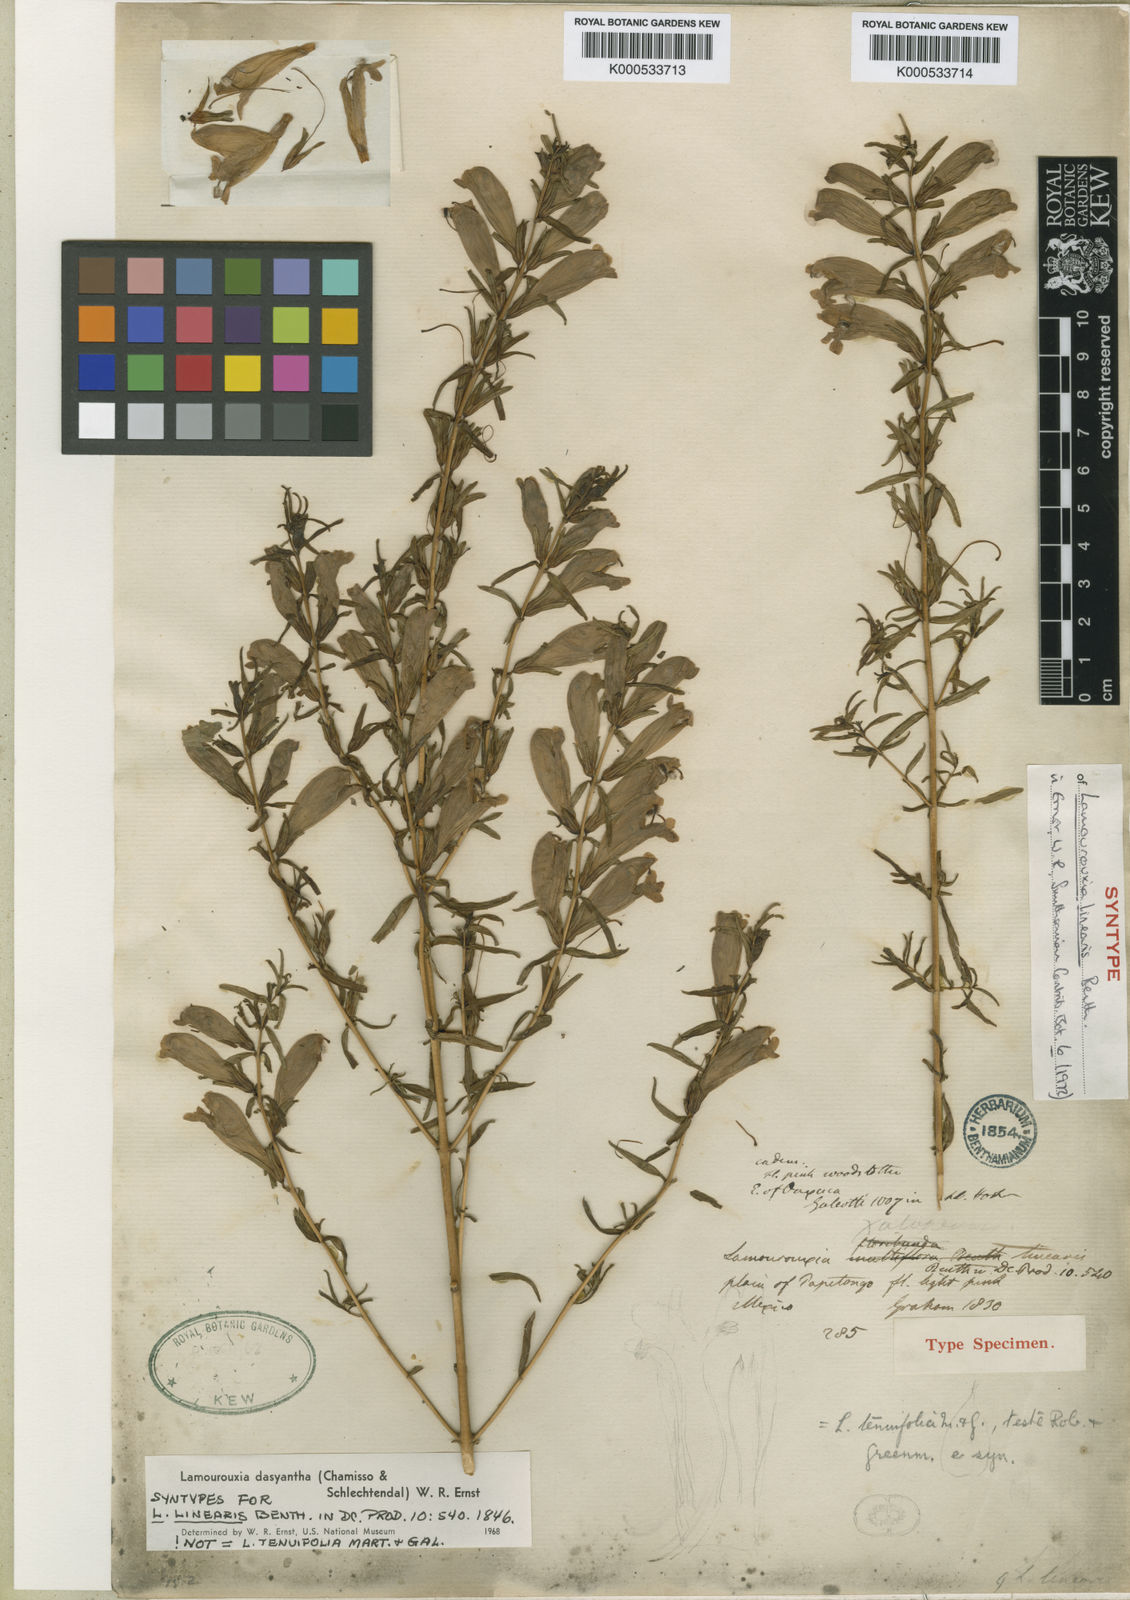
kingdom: Plantae
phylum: Tracheophyta
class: Magnoliopsida
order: Lamiales
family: Orobanchaceae
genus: Lamourouxia
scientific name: Lamourouxia dasyantha
